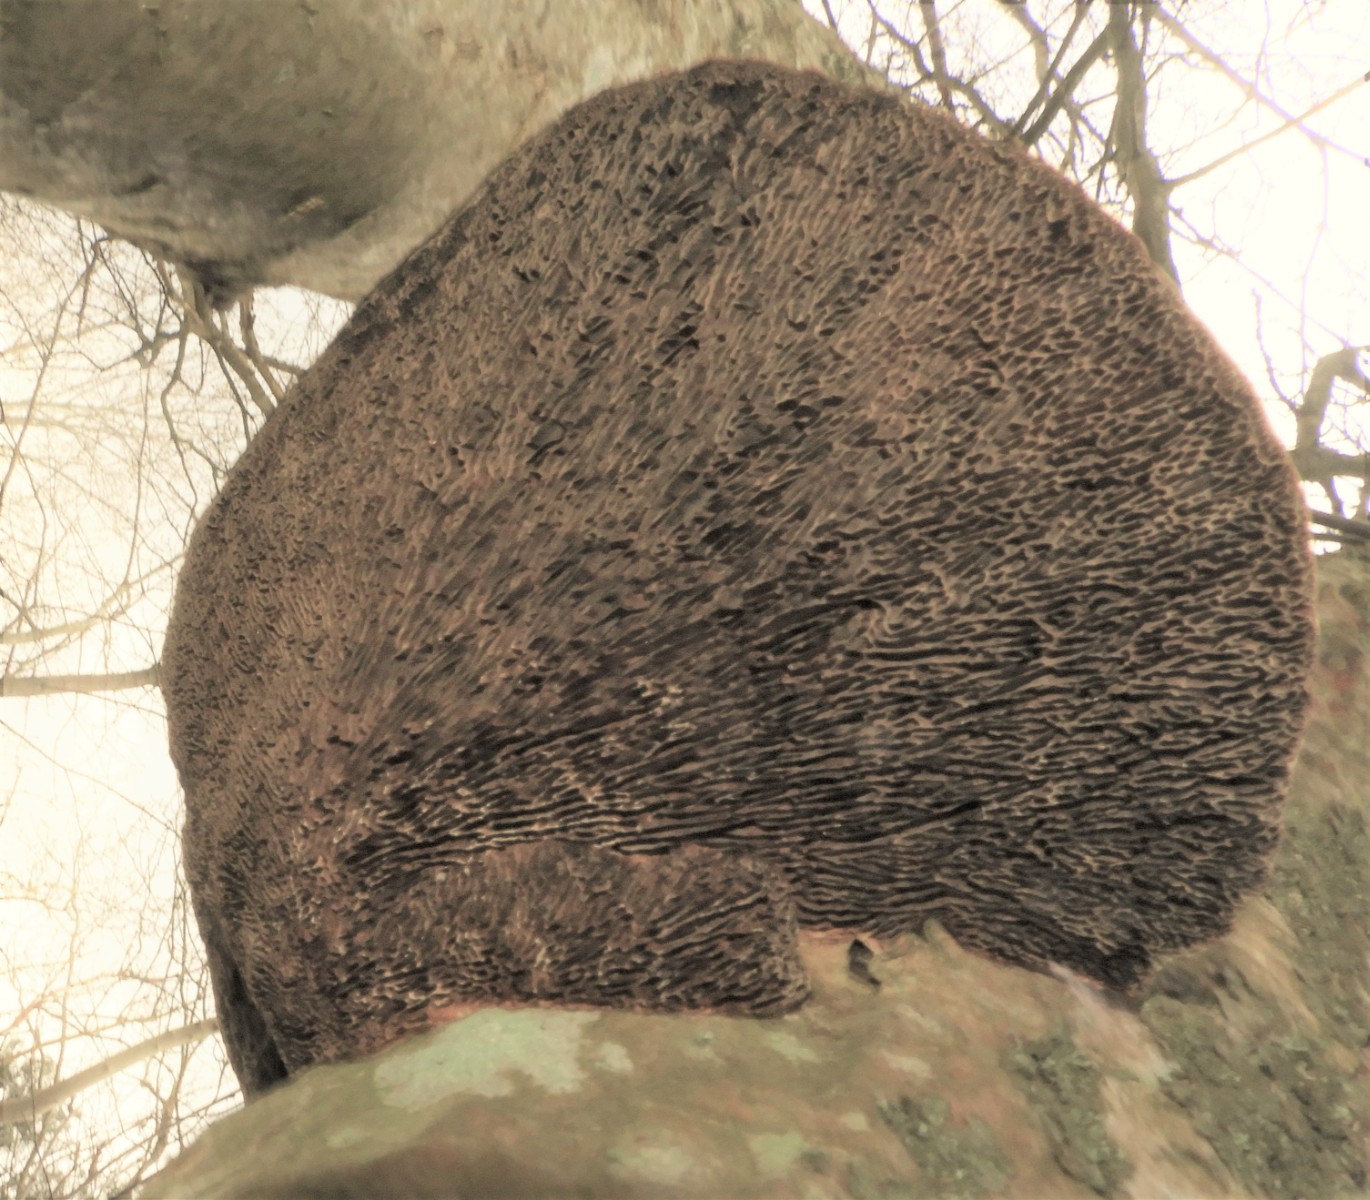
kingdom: Fungi
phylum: Basidiomycota
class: Agaricomycetes
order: Polyporales
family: Polyporaceae
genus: Daedaleopsis
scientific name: Daedaleopsis confragosa
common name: rødmende læderporesvamp
